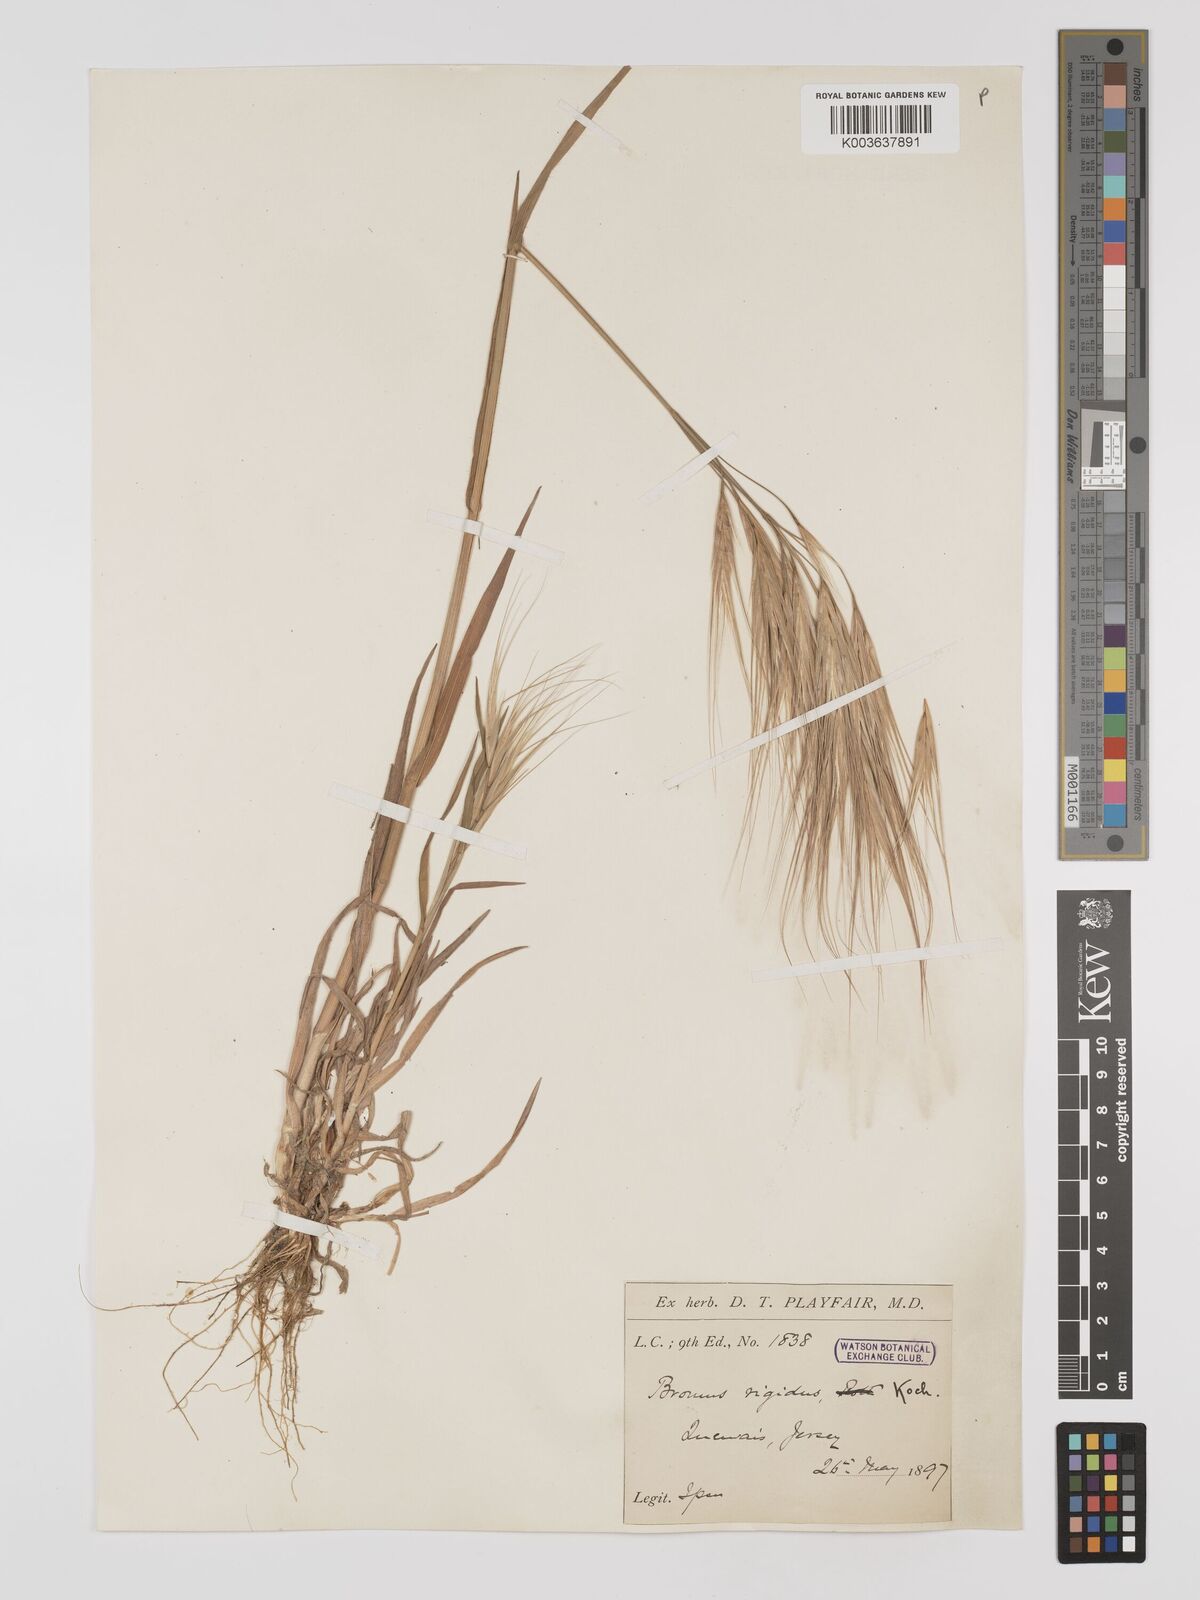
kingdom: Plantae
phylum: Tracheophyta
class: Liliopsida
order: Poales
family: Poaceae
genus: Bromus
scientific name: Bromus
